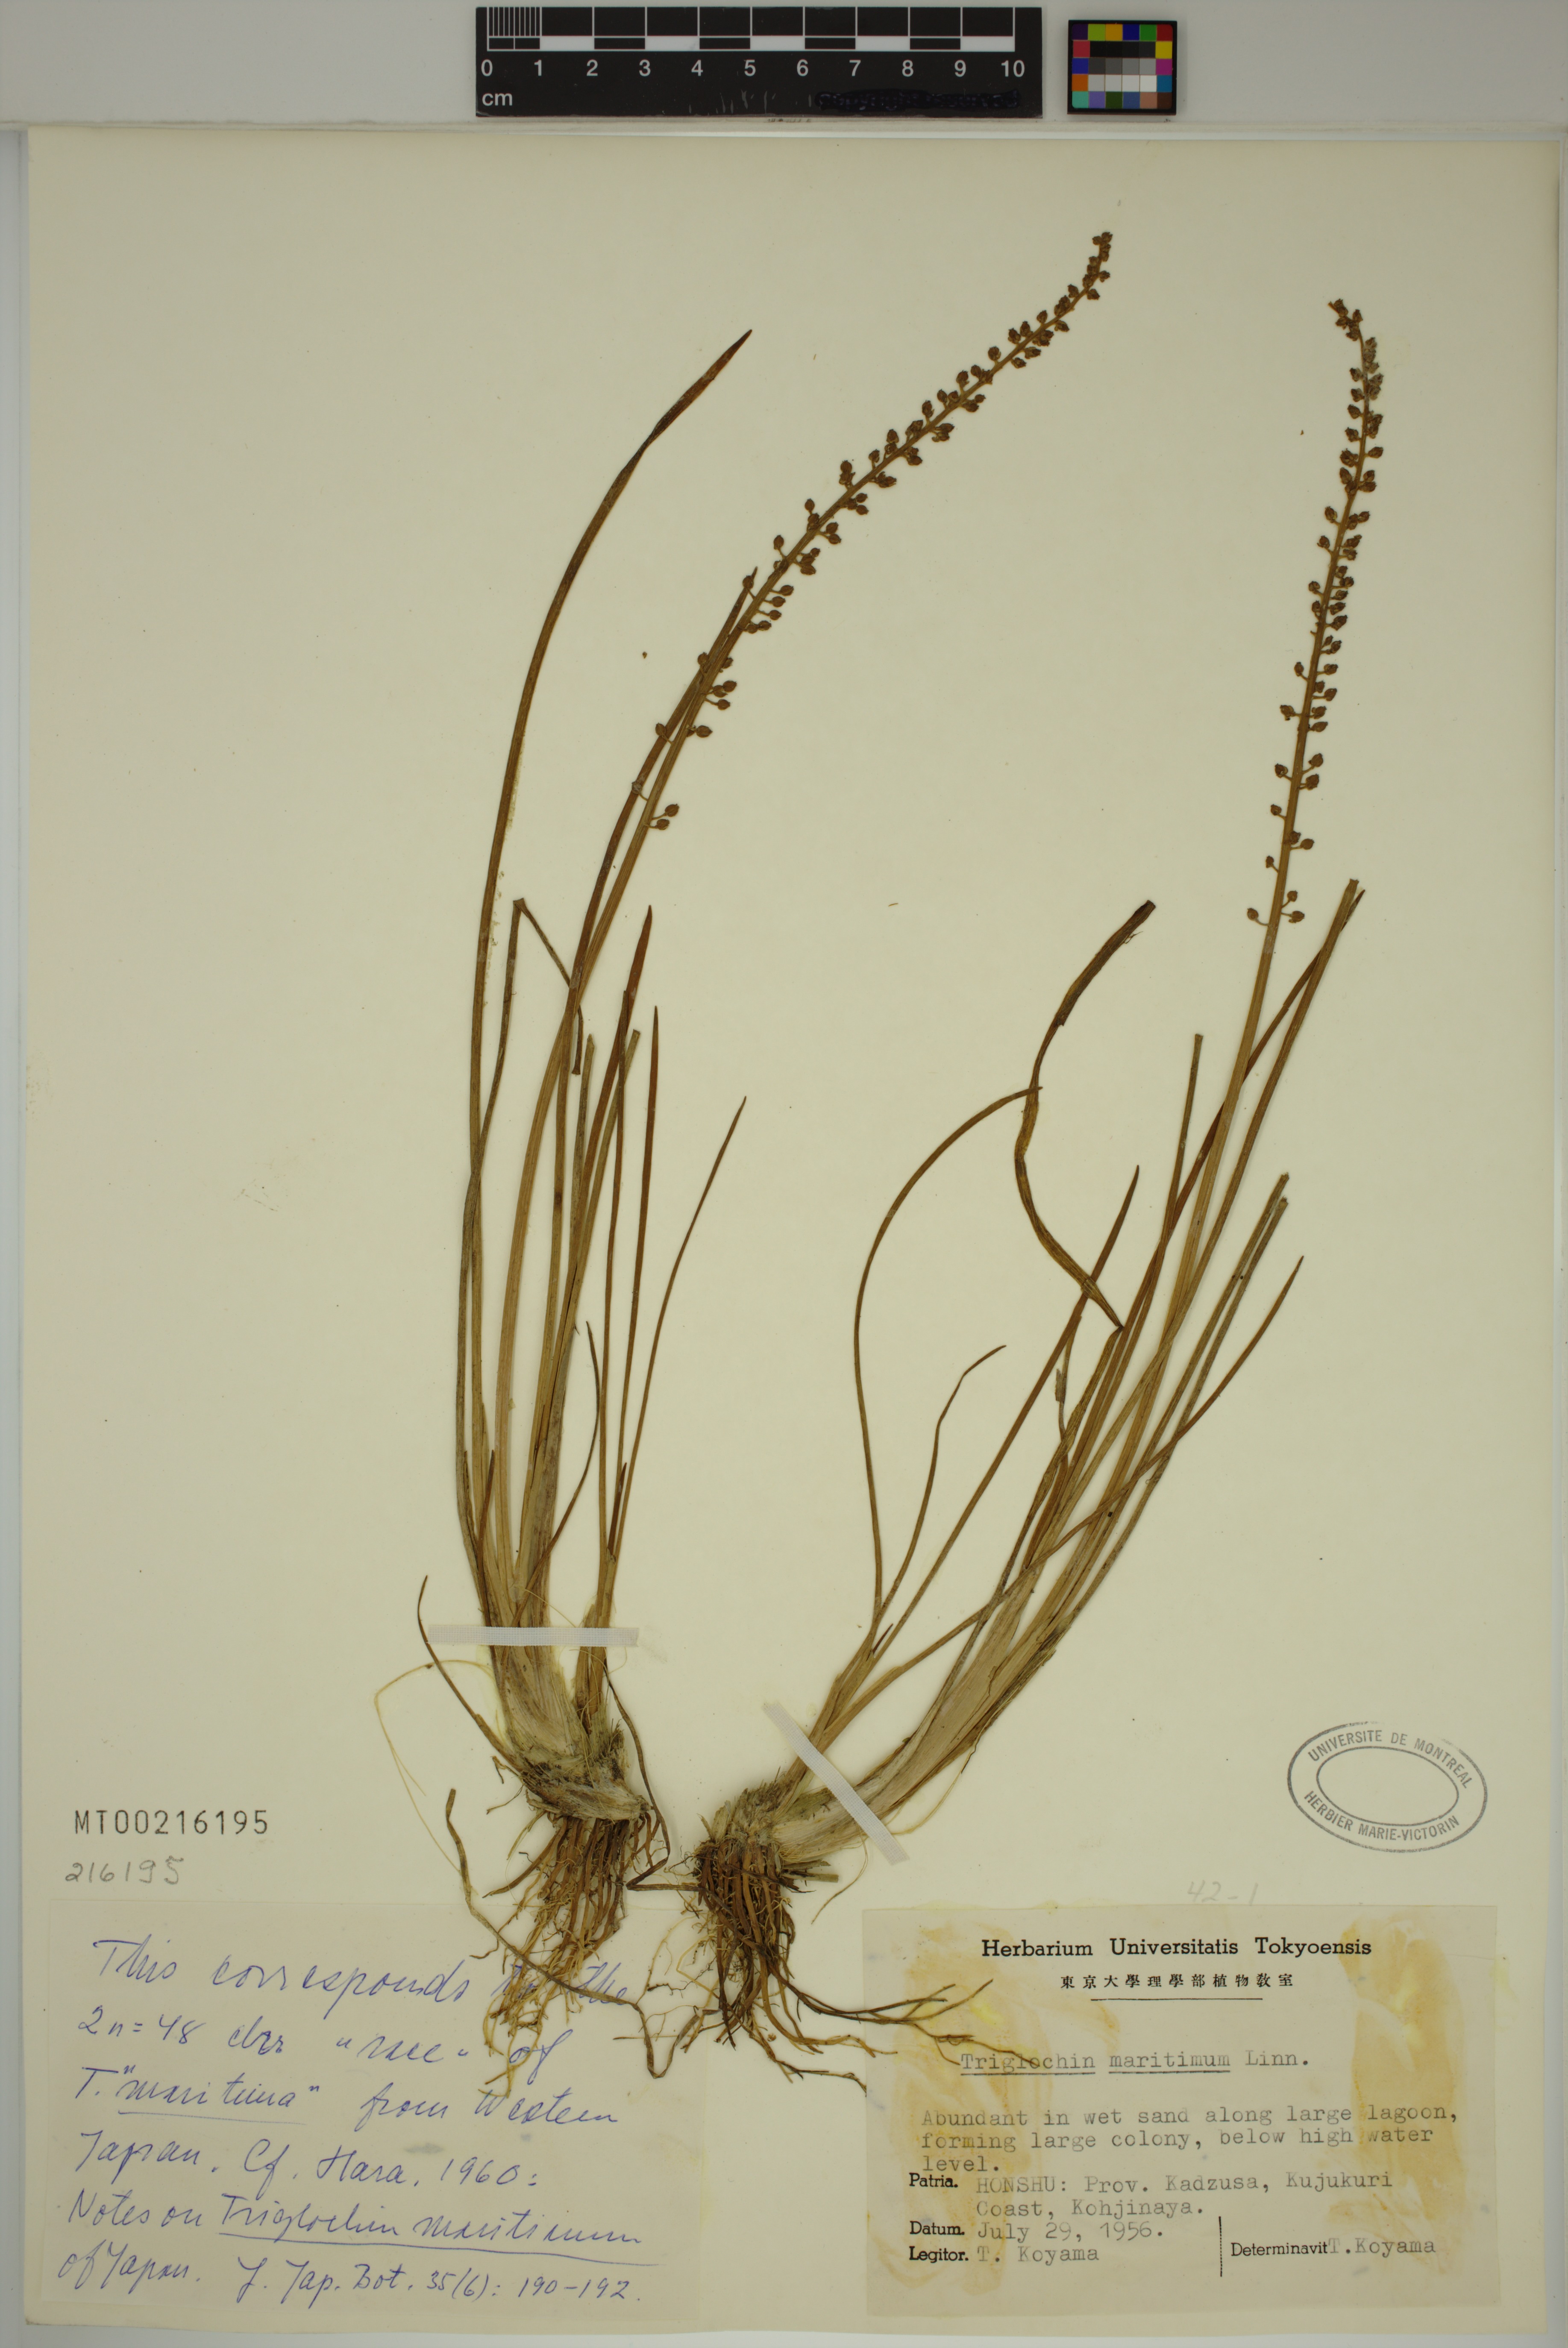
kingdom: Plantae
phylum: Tracheophyta
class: Liliopsida
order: Alismatales
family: Juncaginaceae
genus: Triglochin
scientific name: Triglochin maritima
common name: Sea arrowgrass
